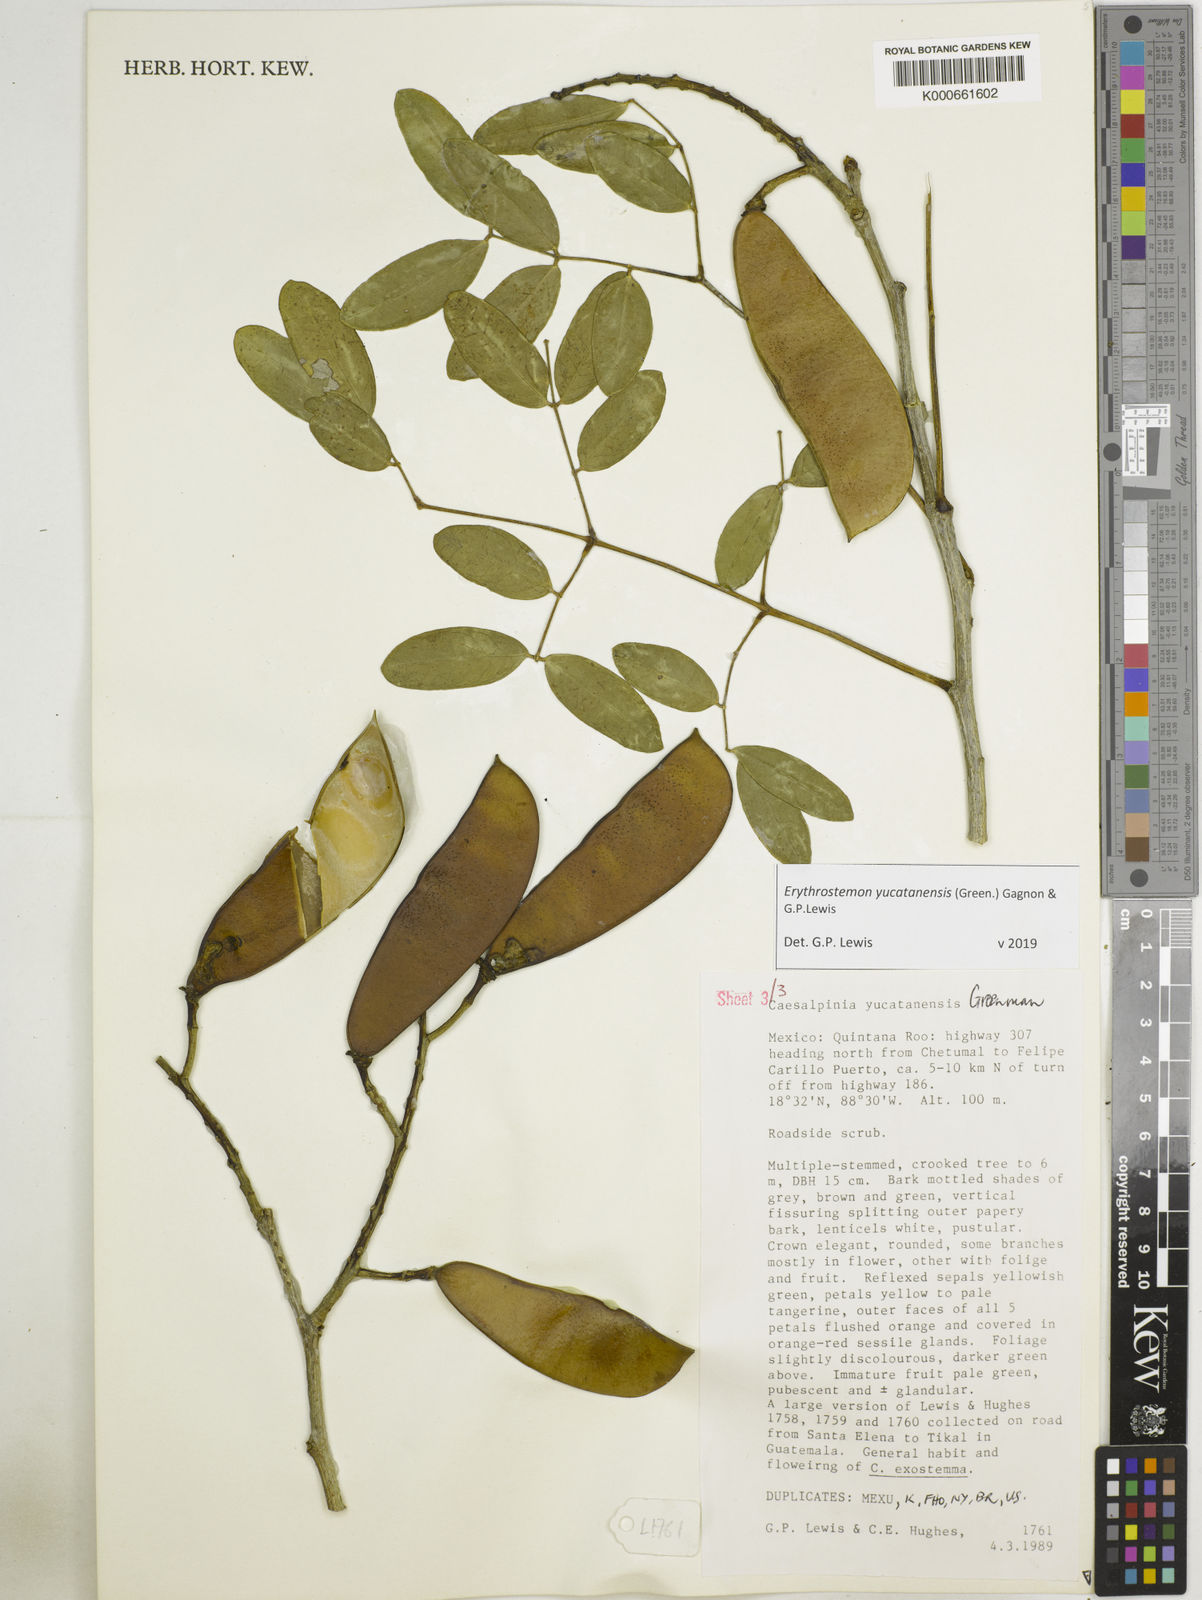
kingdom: Plantae
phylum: Tracheophyta
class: Magnoliopsida
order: Fabales
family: Fabaceae
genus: Caesalpinia
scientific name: Caesalpinia
